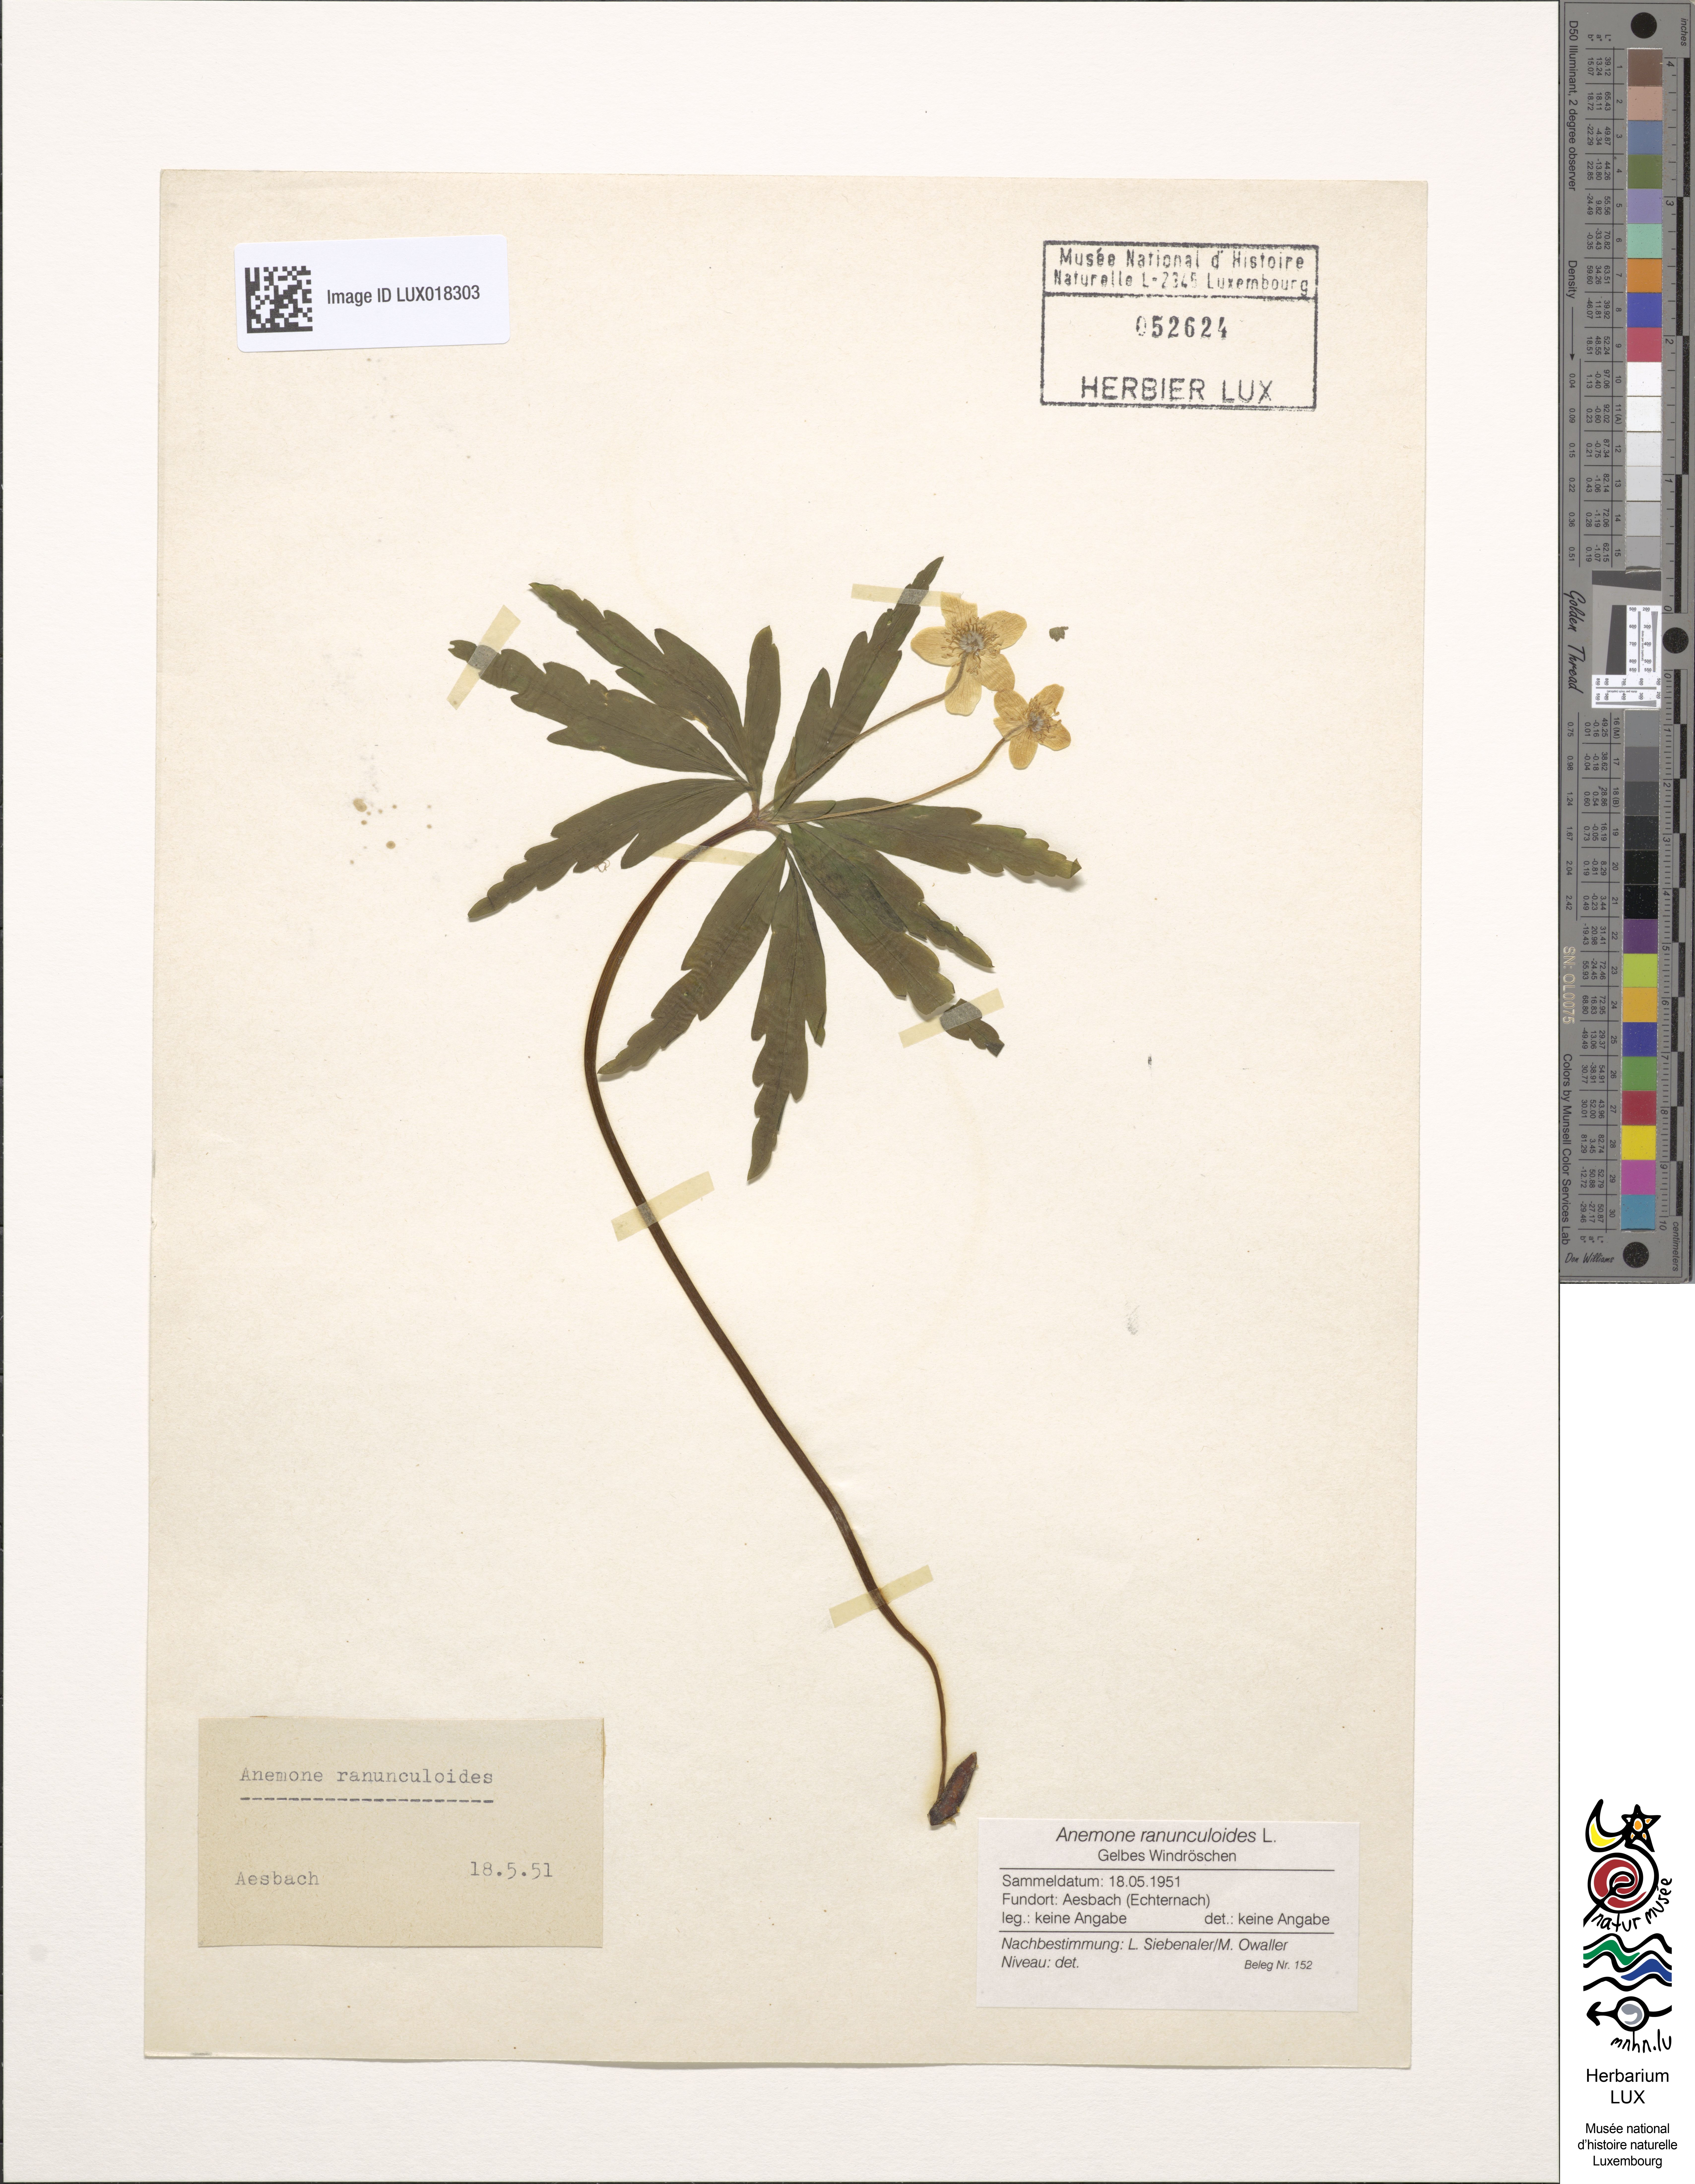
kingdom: Plantae
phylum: Tracheophyta
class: Magnoliopsida
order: Ranunculales
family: Ranunculaceae
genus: Anemone
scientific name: Anemone ranunculoides
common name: Yellow anemone
